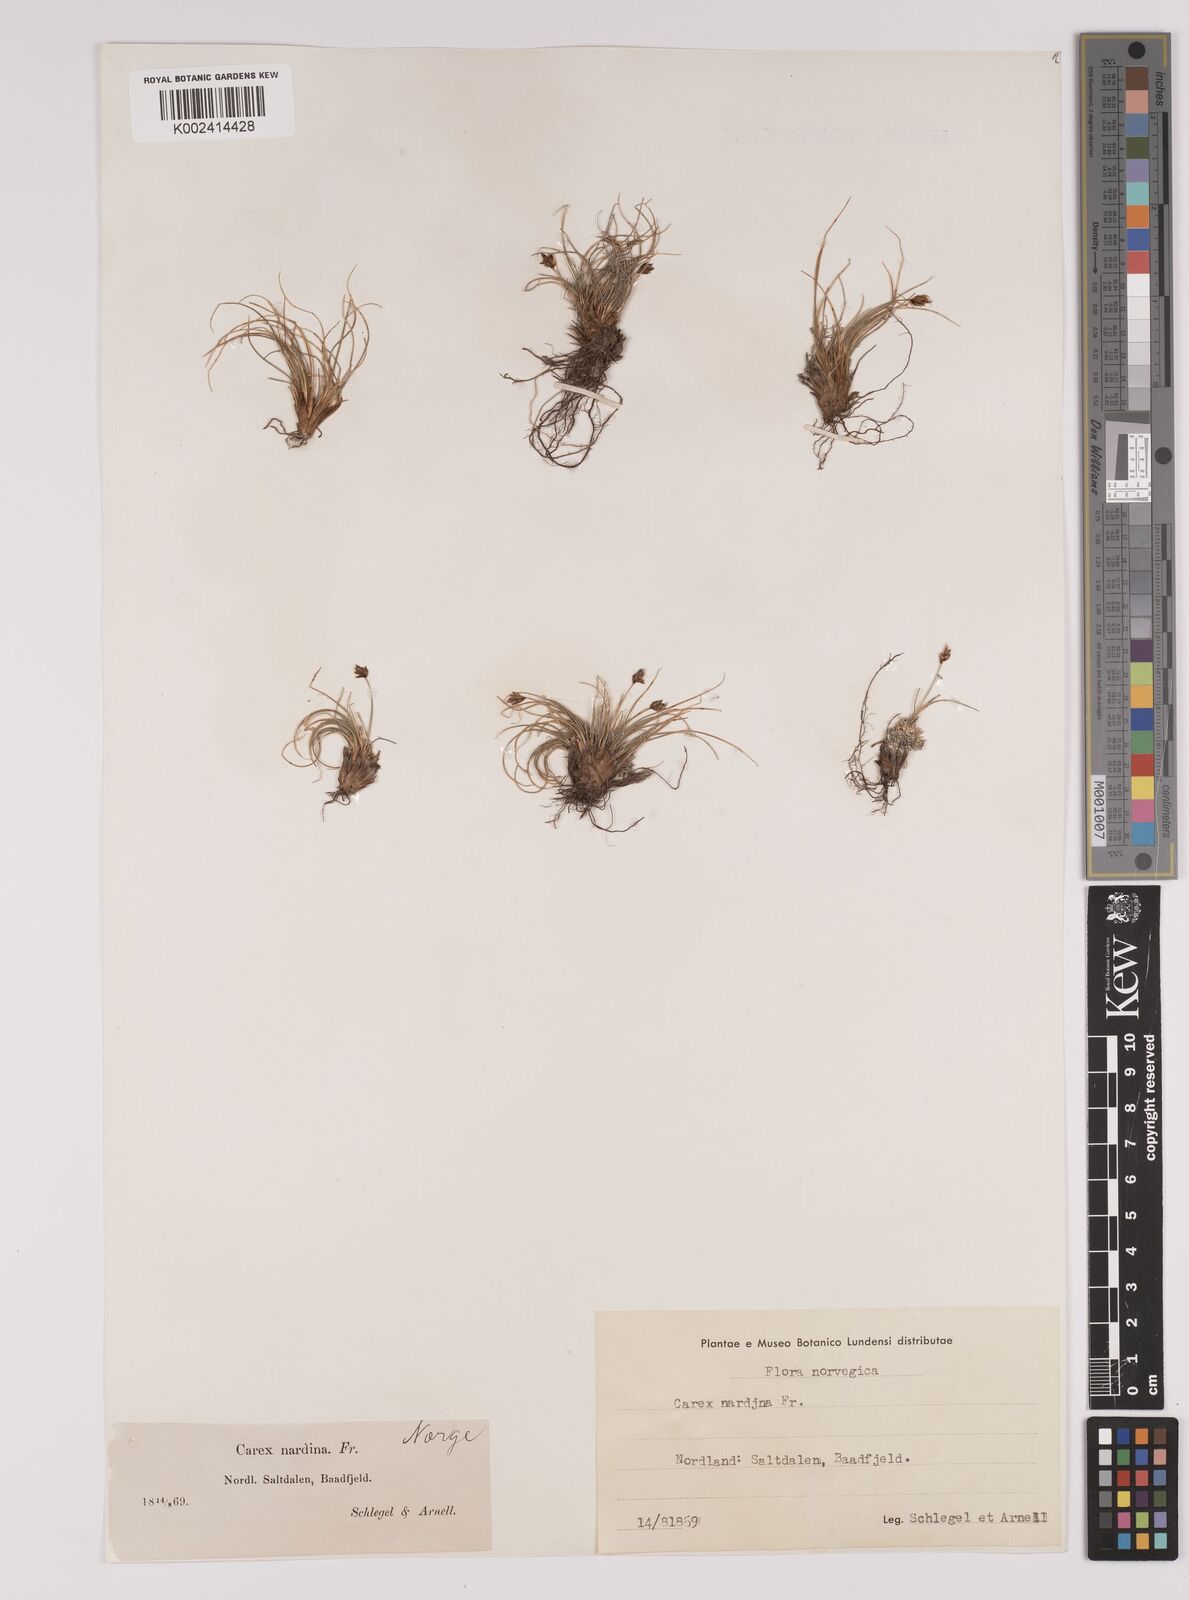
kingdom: Plantae
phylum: Tracheophyta
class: Liliopsida
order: Poales
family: Cyperaceae
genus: Carex
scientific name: Carex nardina
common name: Nard sedge
